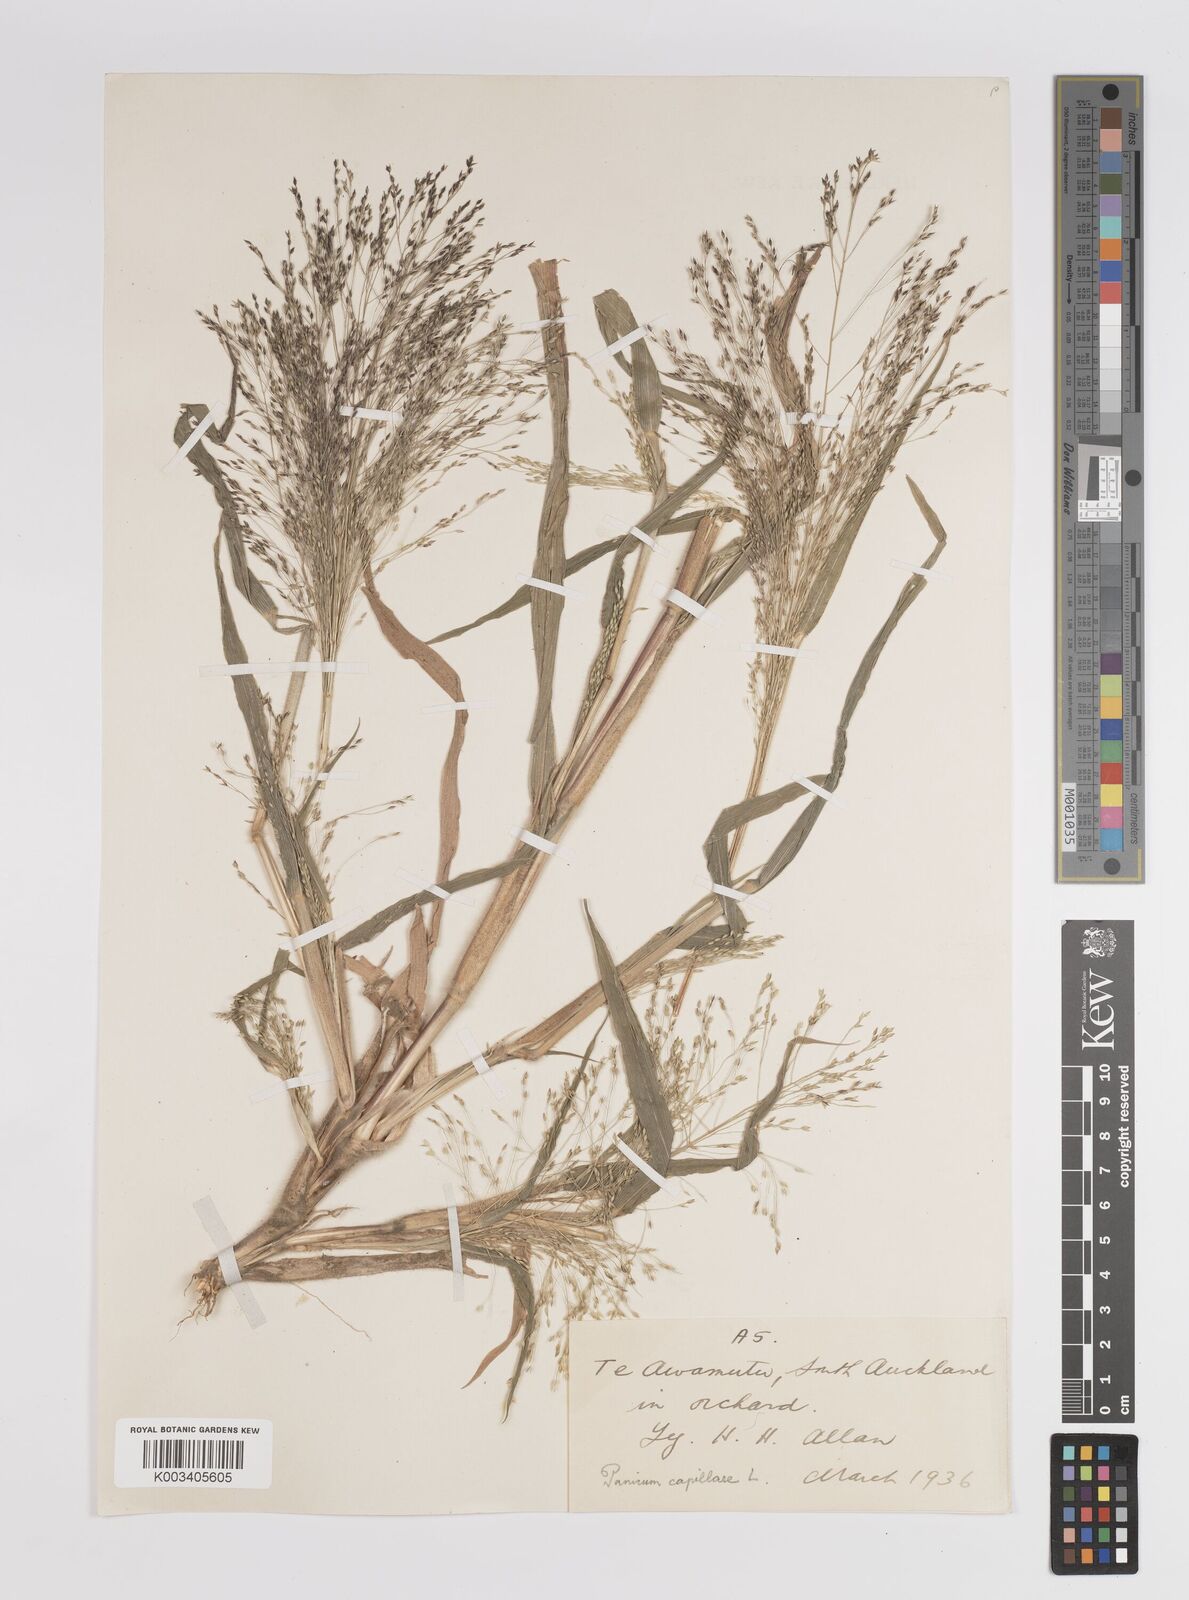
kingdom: Plantae
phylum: Tracheophyta
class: Liliopsida
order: Poales
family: Poaceae
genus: Panicum
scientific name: Panicum capillare
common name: Witch-grass
